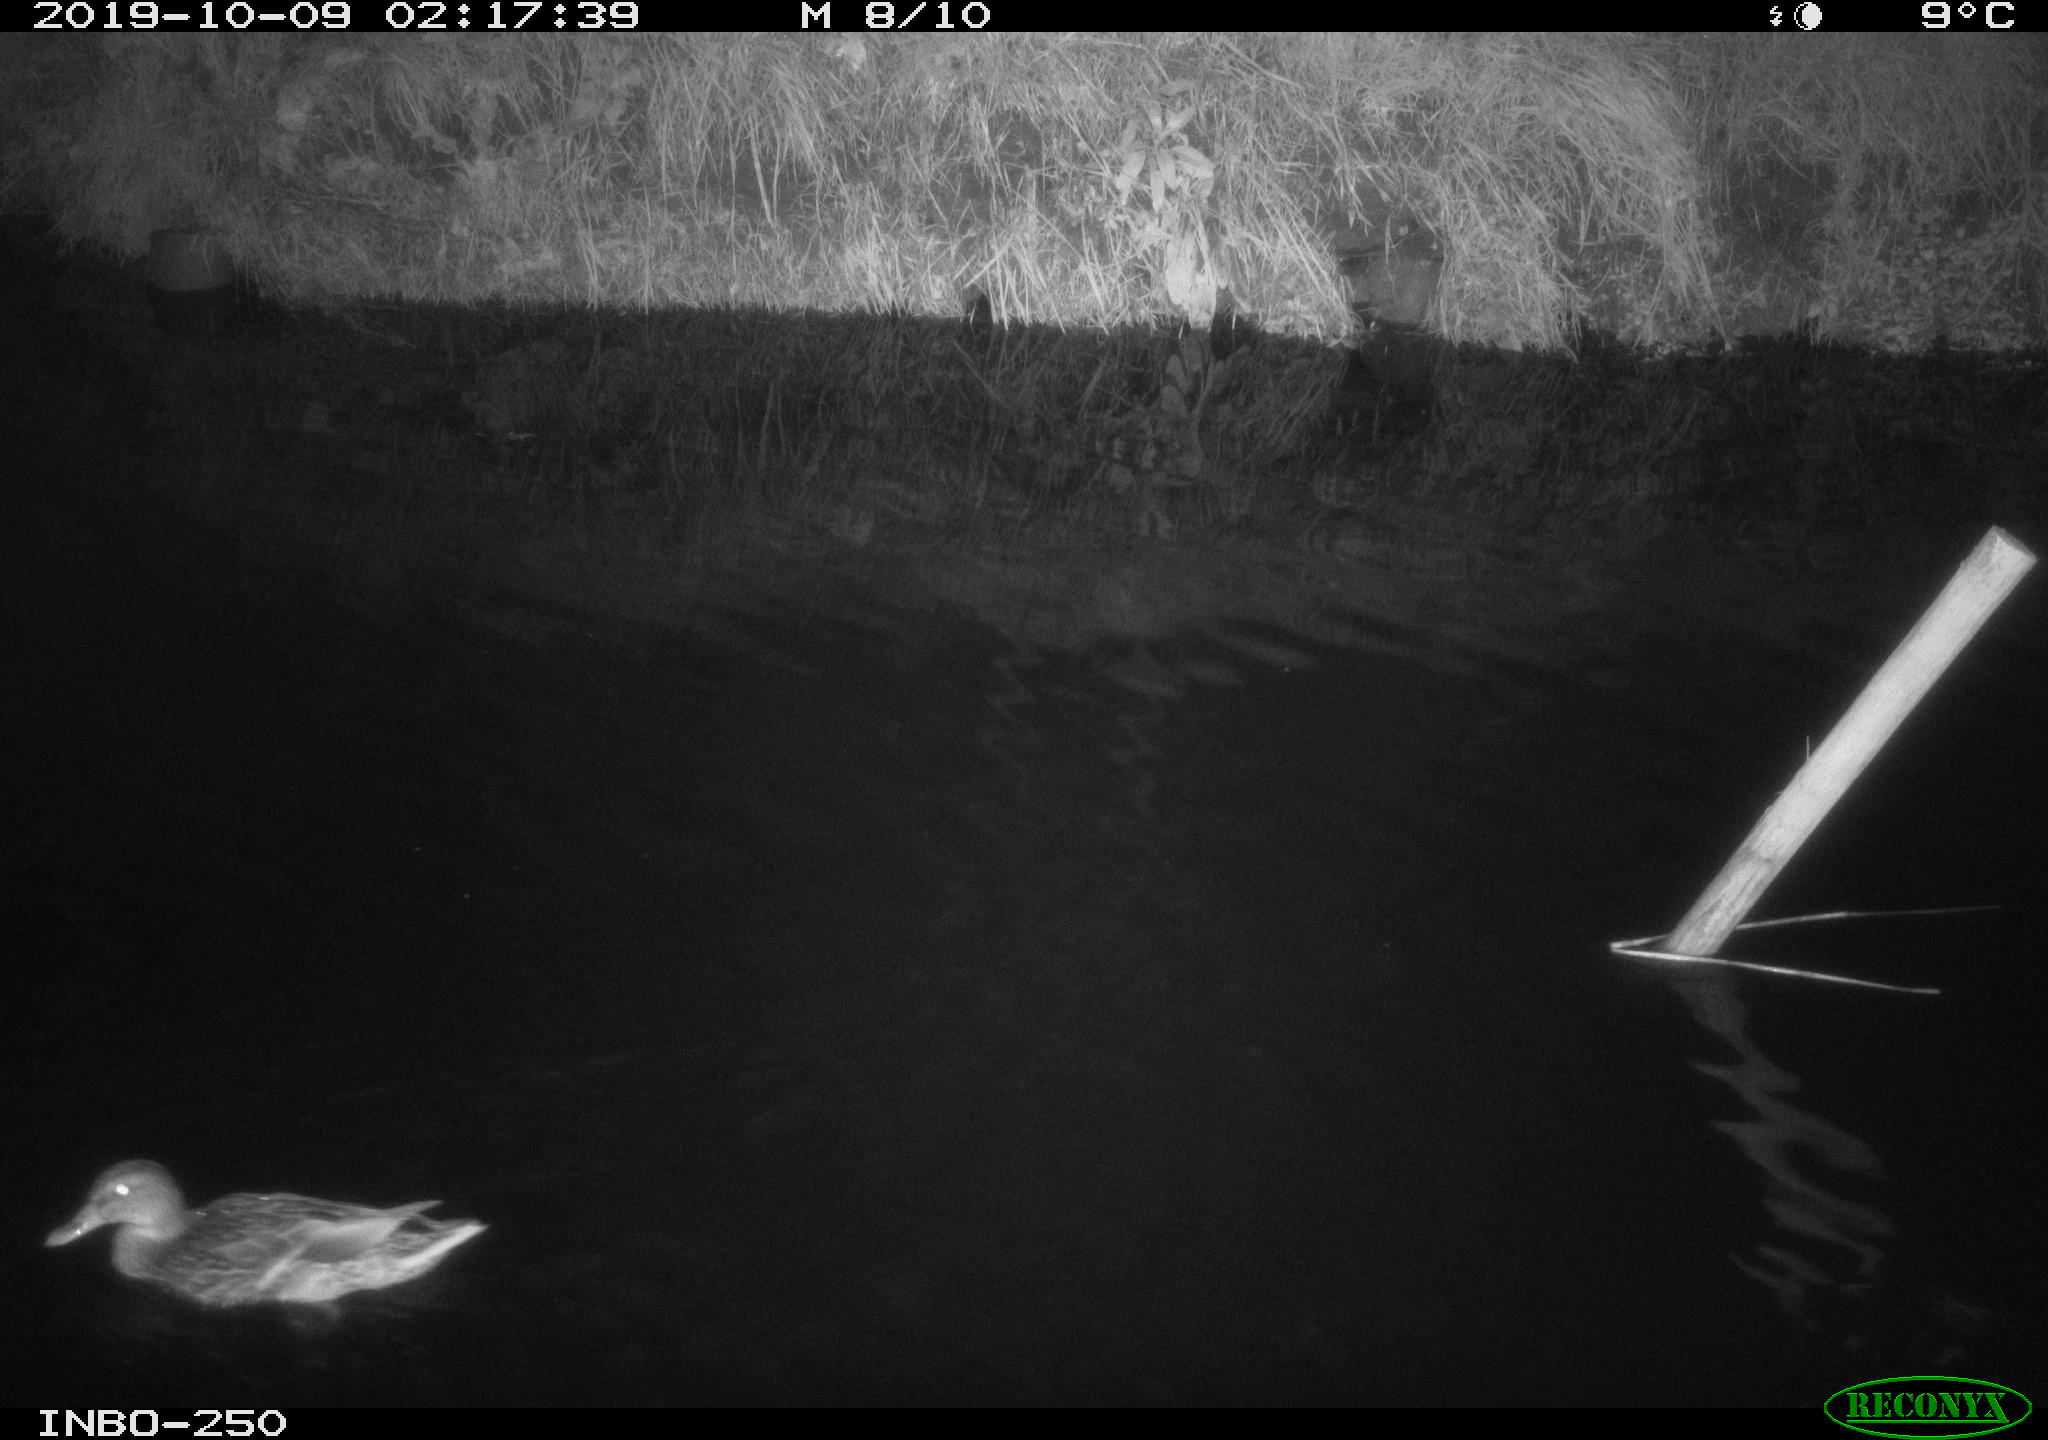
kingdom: Animalia
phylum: Chordata
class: Aves
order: Anseriformes
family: Anatidae
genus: Anas
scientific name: Anas platyrhynchos
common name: Mallard
